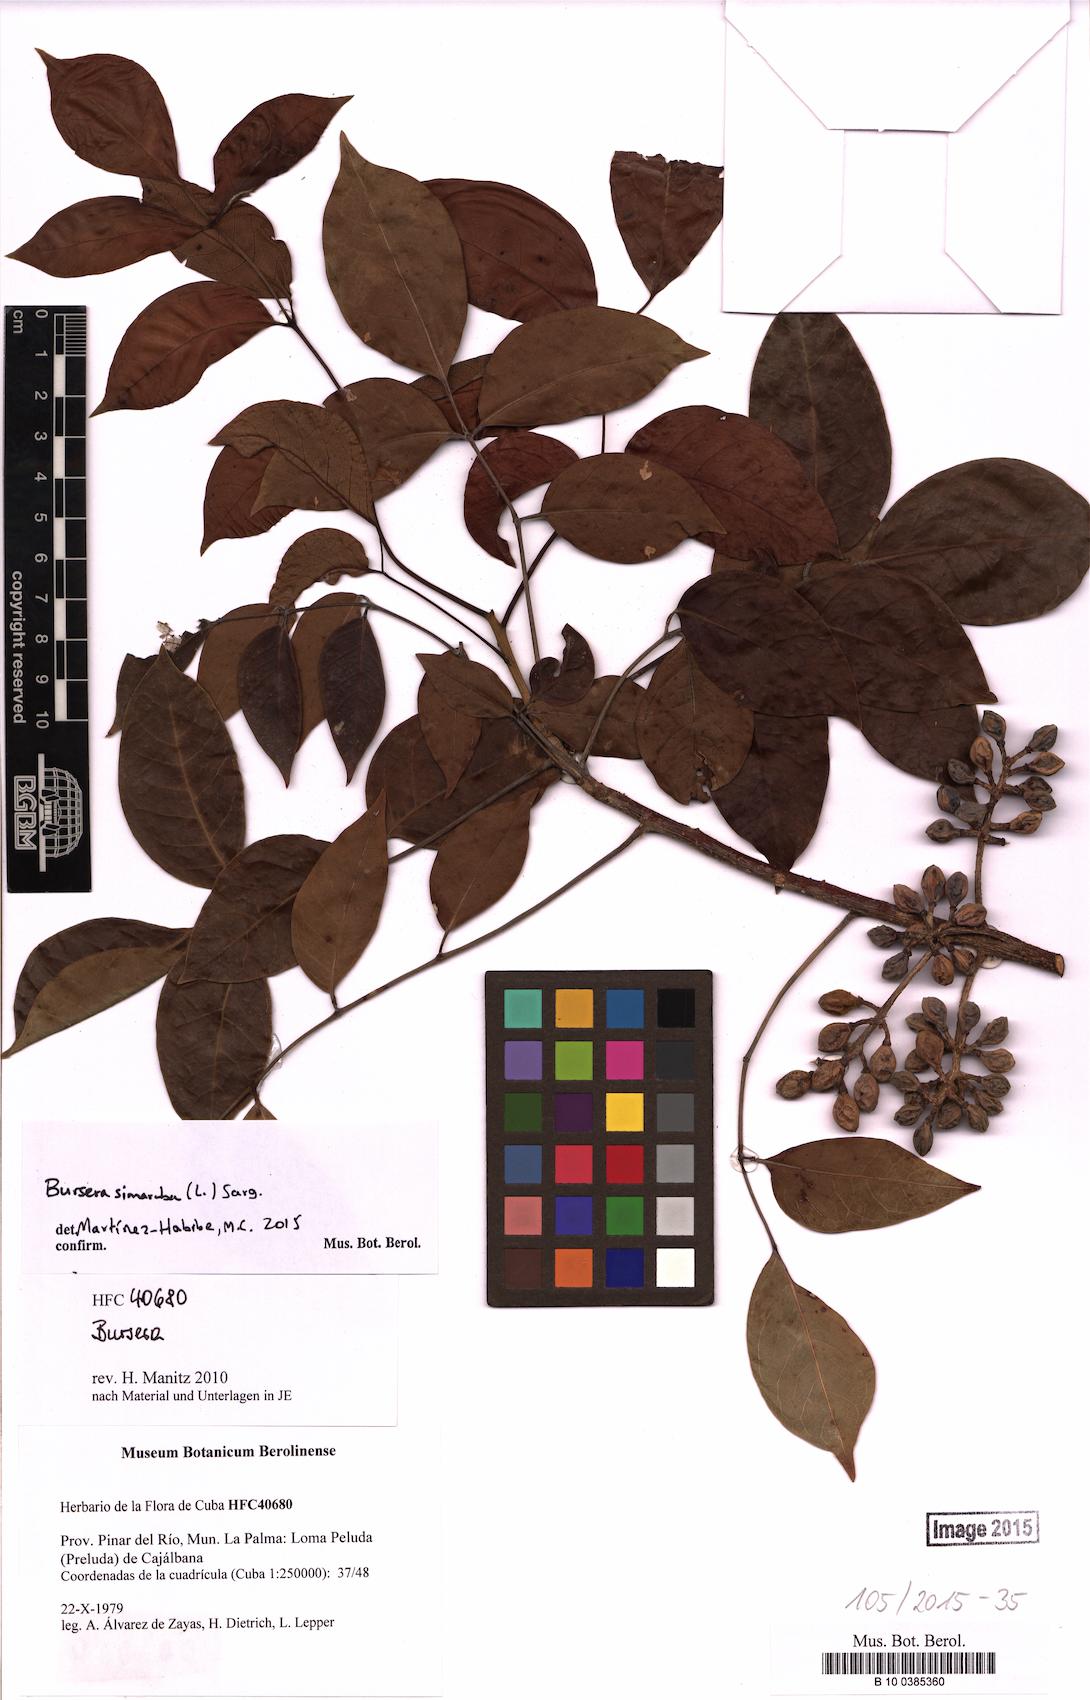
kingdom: Plantae
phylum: Tracheophyta
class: Magnoliopsida
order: Sapindales
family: Burseraceae
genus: Bursera
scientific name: Bursera simaruba
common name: Turpentine tree
